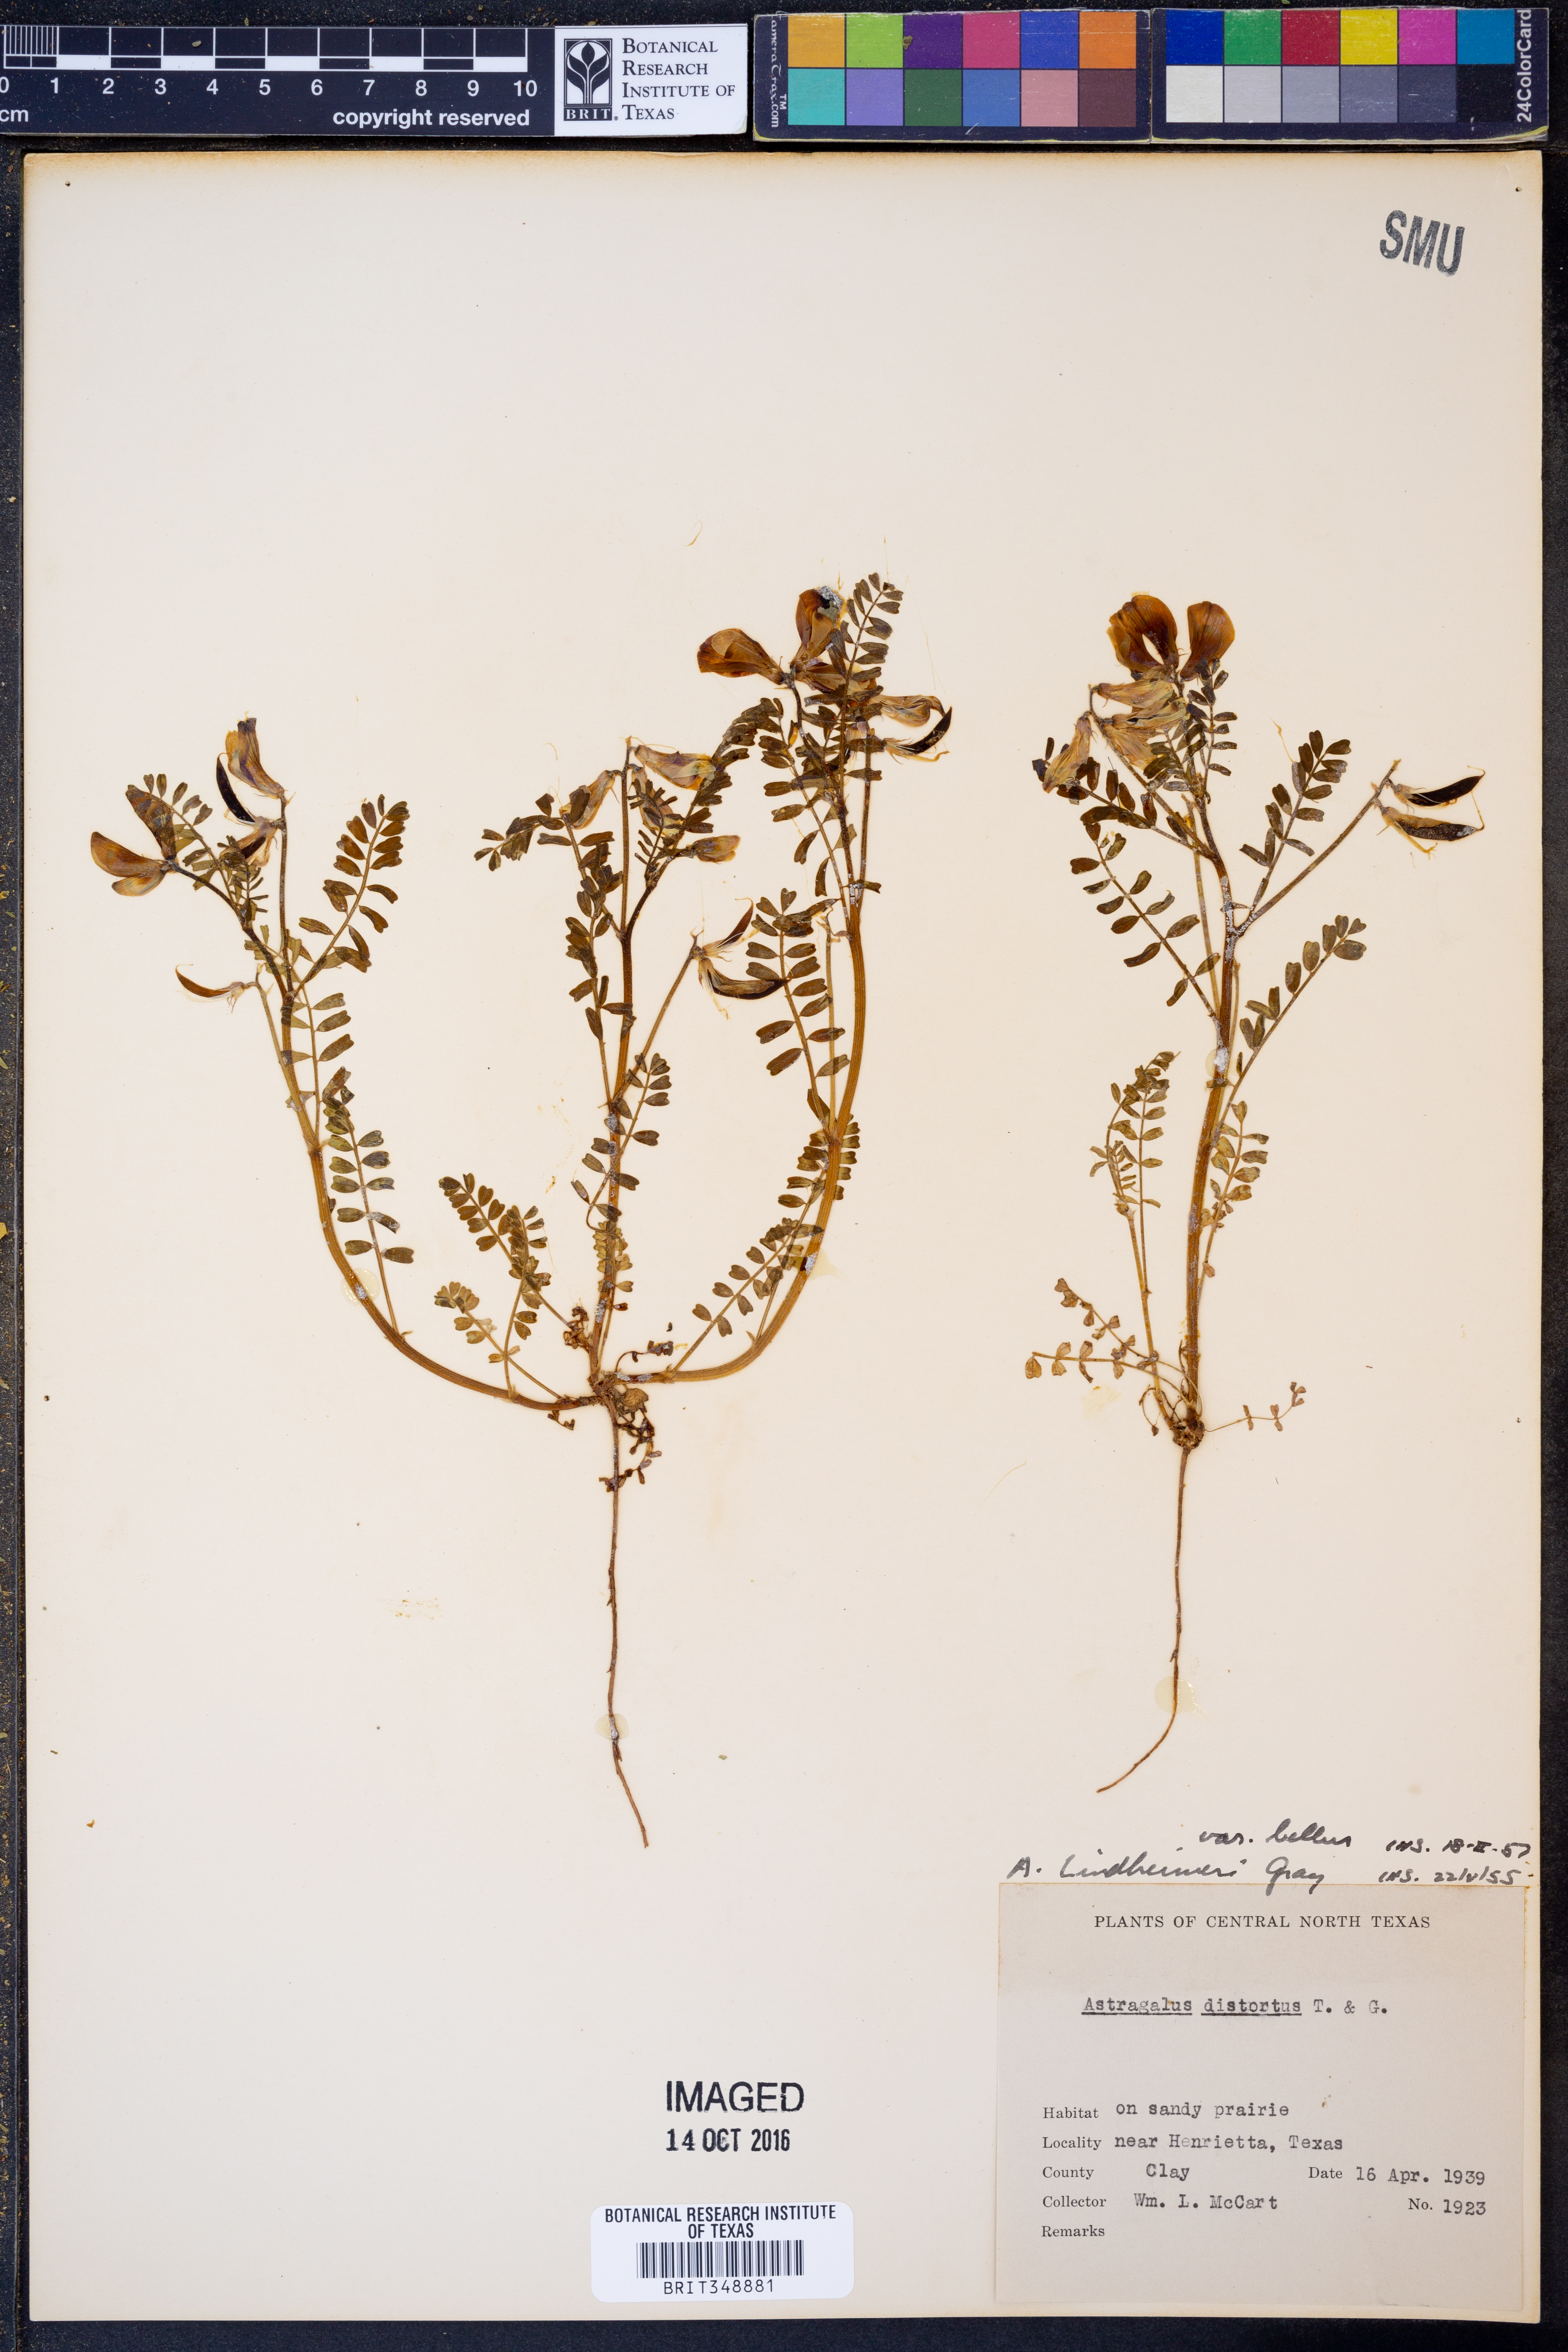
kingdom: Plantae
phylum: Tracheophyta
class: Magnoliopsida
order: Fabales
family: Fabaceae
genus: Astragalus
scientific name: Astragalus lindheimeri
